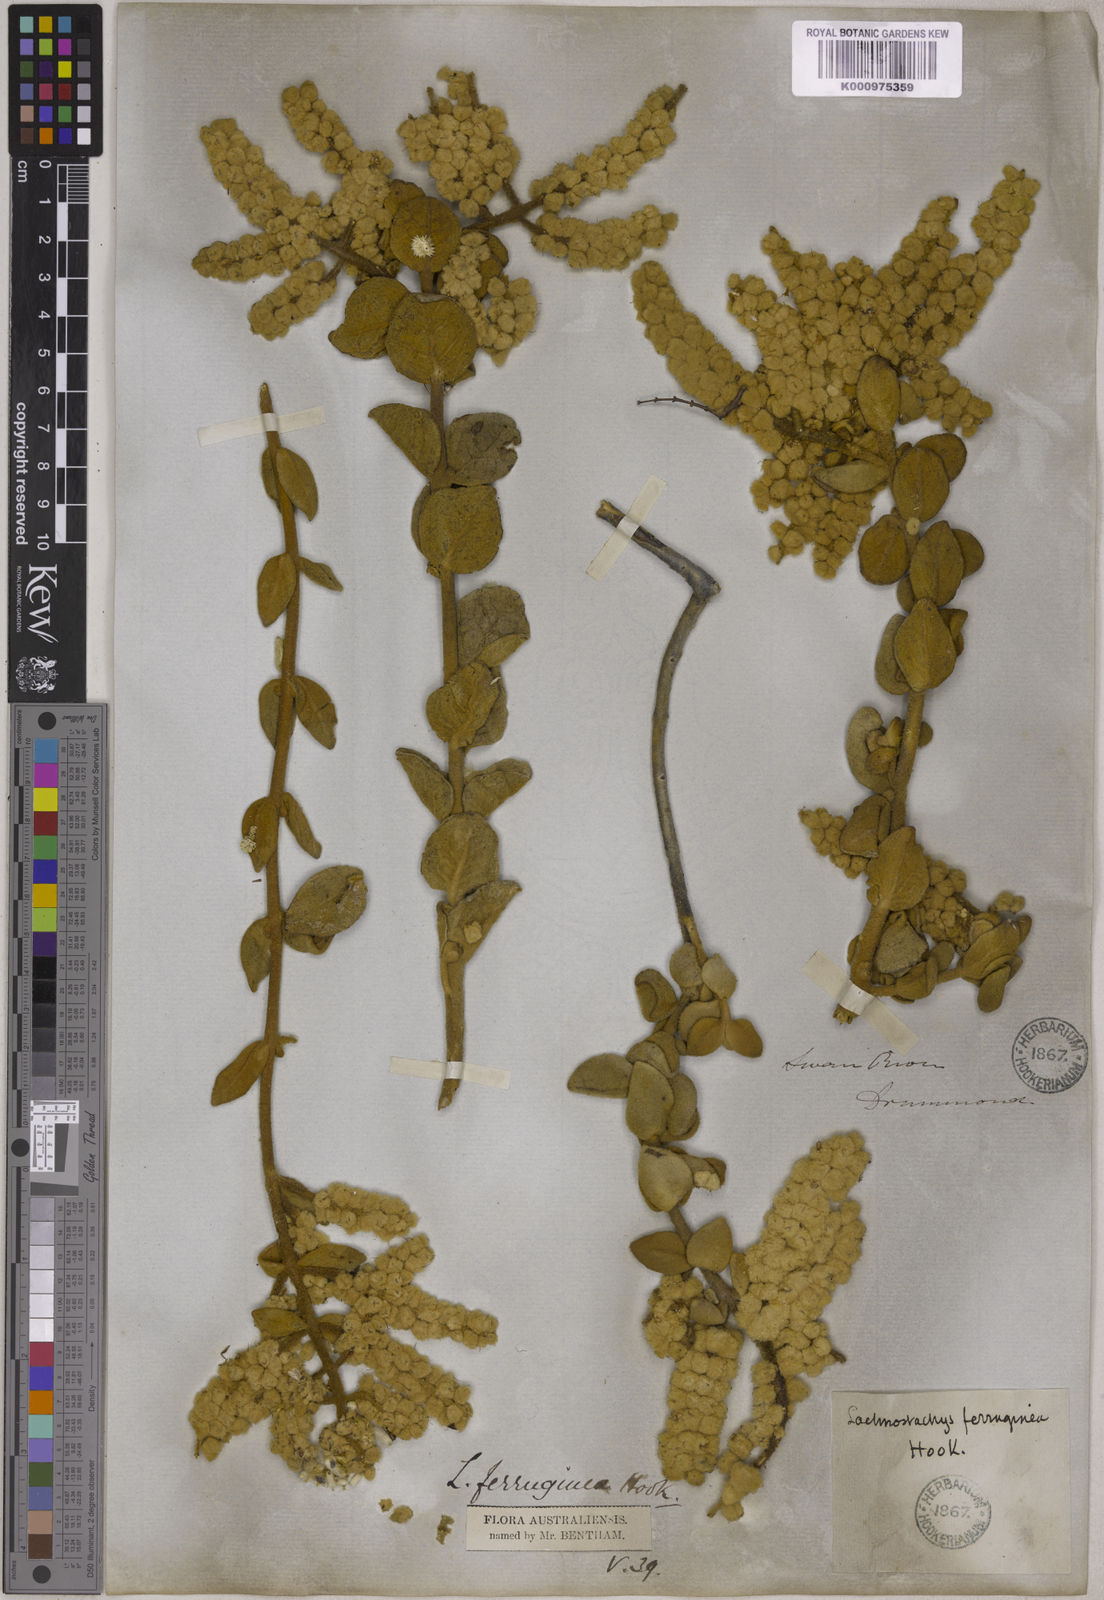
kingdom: Plantae
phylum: Tracheophyta
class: Magnoliopsida
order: Lamiales
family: Lamiaceae
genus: Lachnostachys
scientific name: Lachnostachys ferruginea
